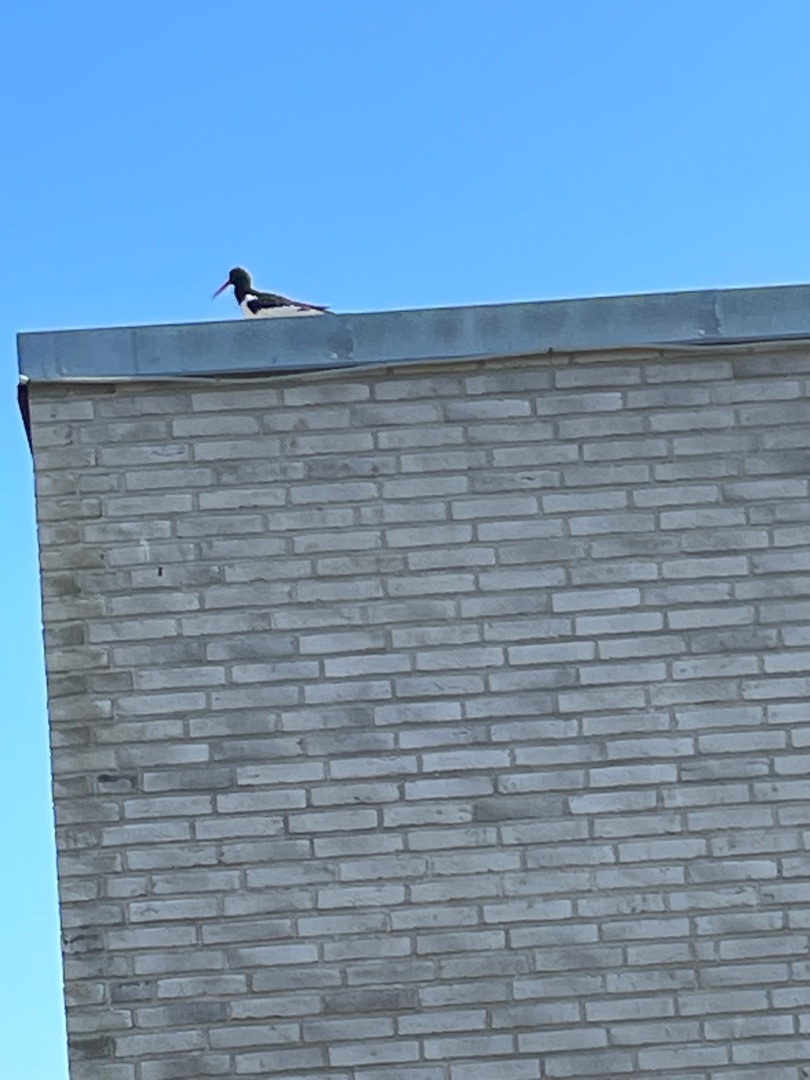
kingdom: Animalia
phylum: Chordata
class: Aves
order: Charadriiformes
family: Haematopodidae
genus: Haematopus
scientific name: Haematopus ostralegus
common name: Strandskade
